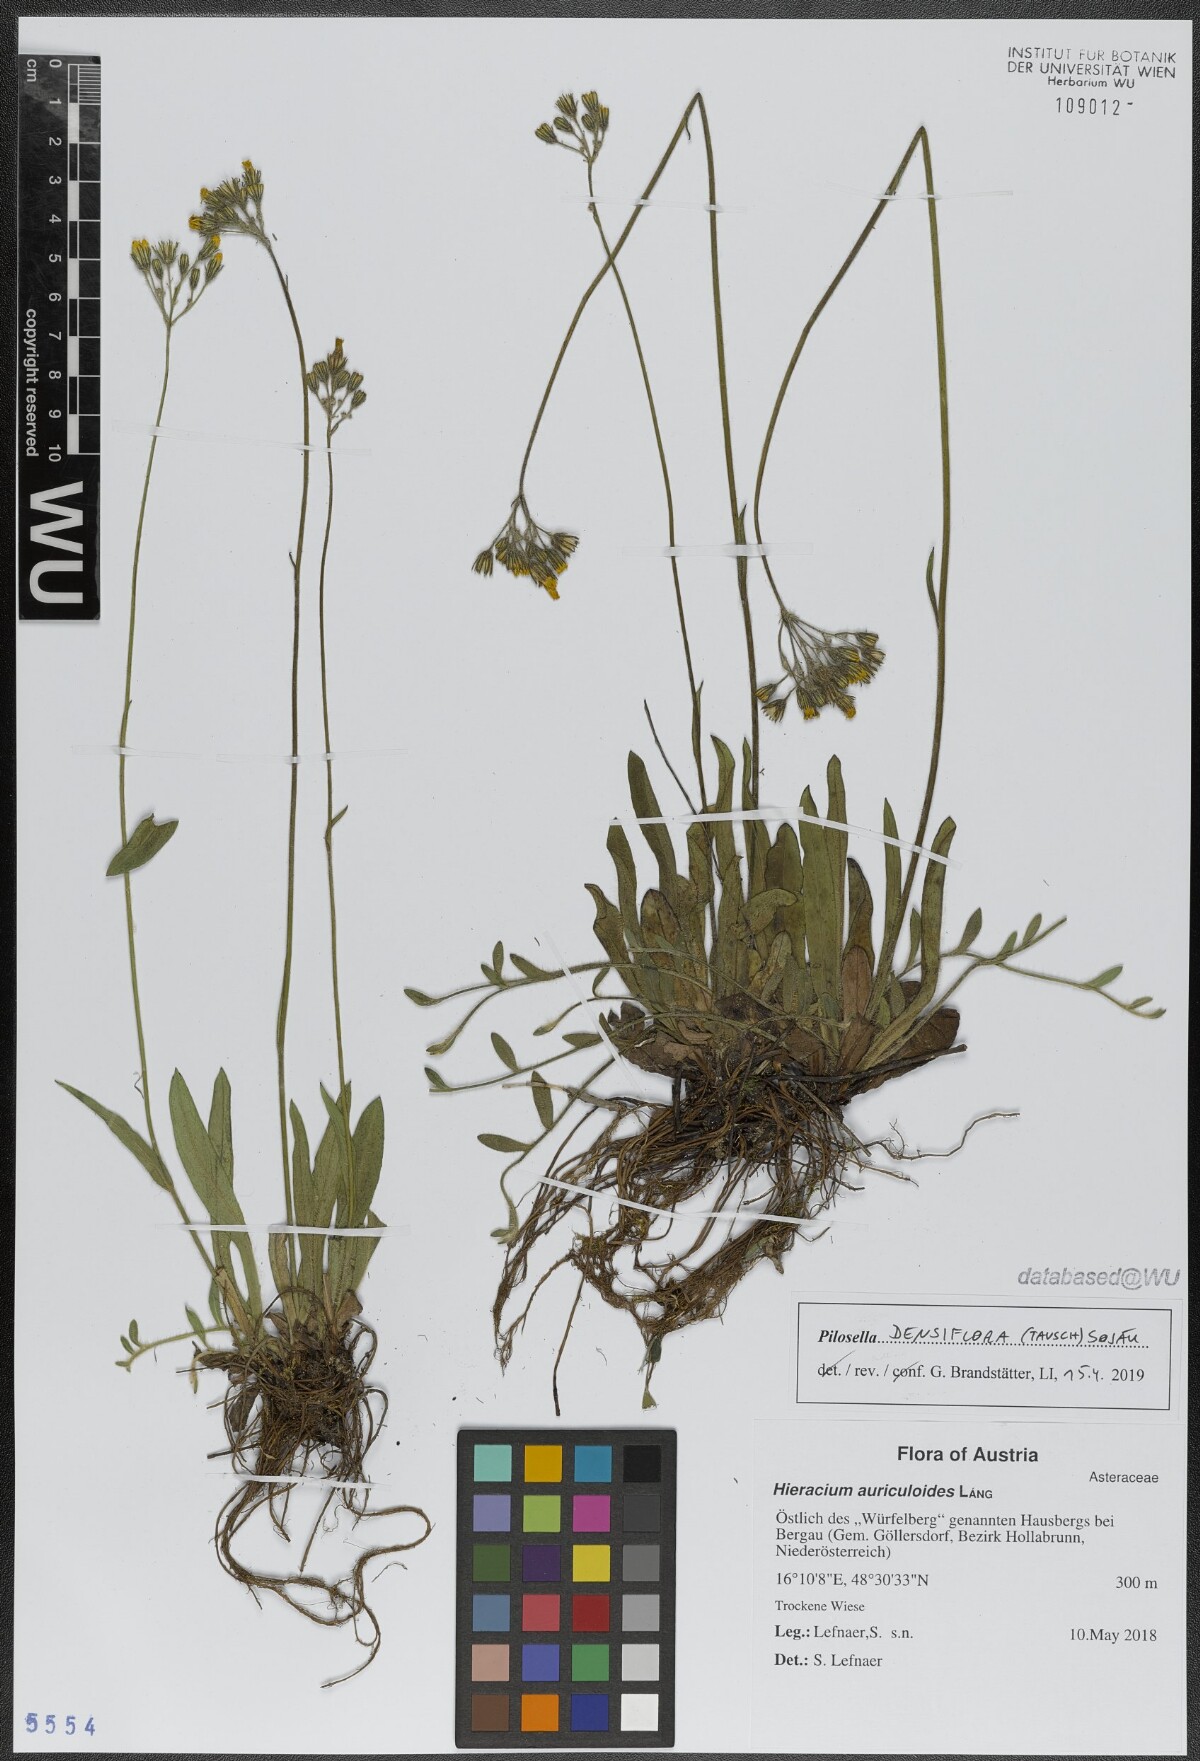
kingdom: Plantae
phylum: Tracheophyta
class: Magnoliopsida
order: Asterales
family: Asteraceae
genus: Pilosella
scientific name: Pilosella densiflora
